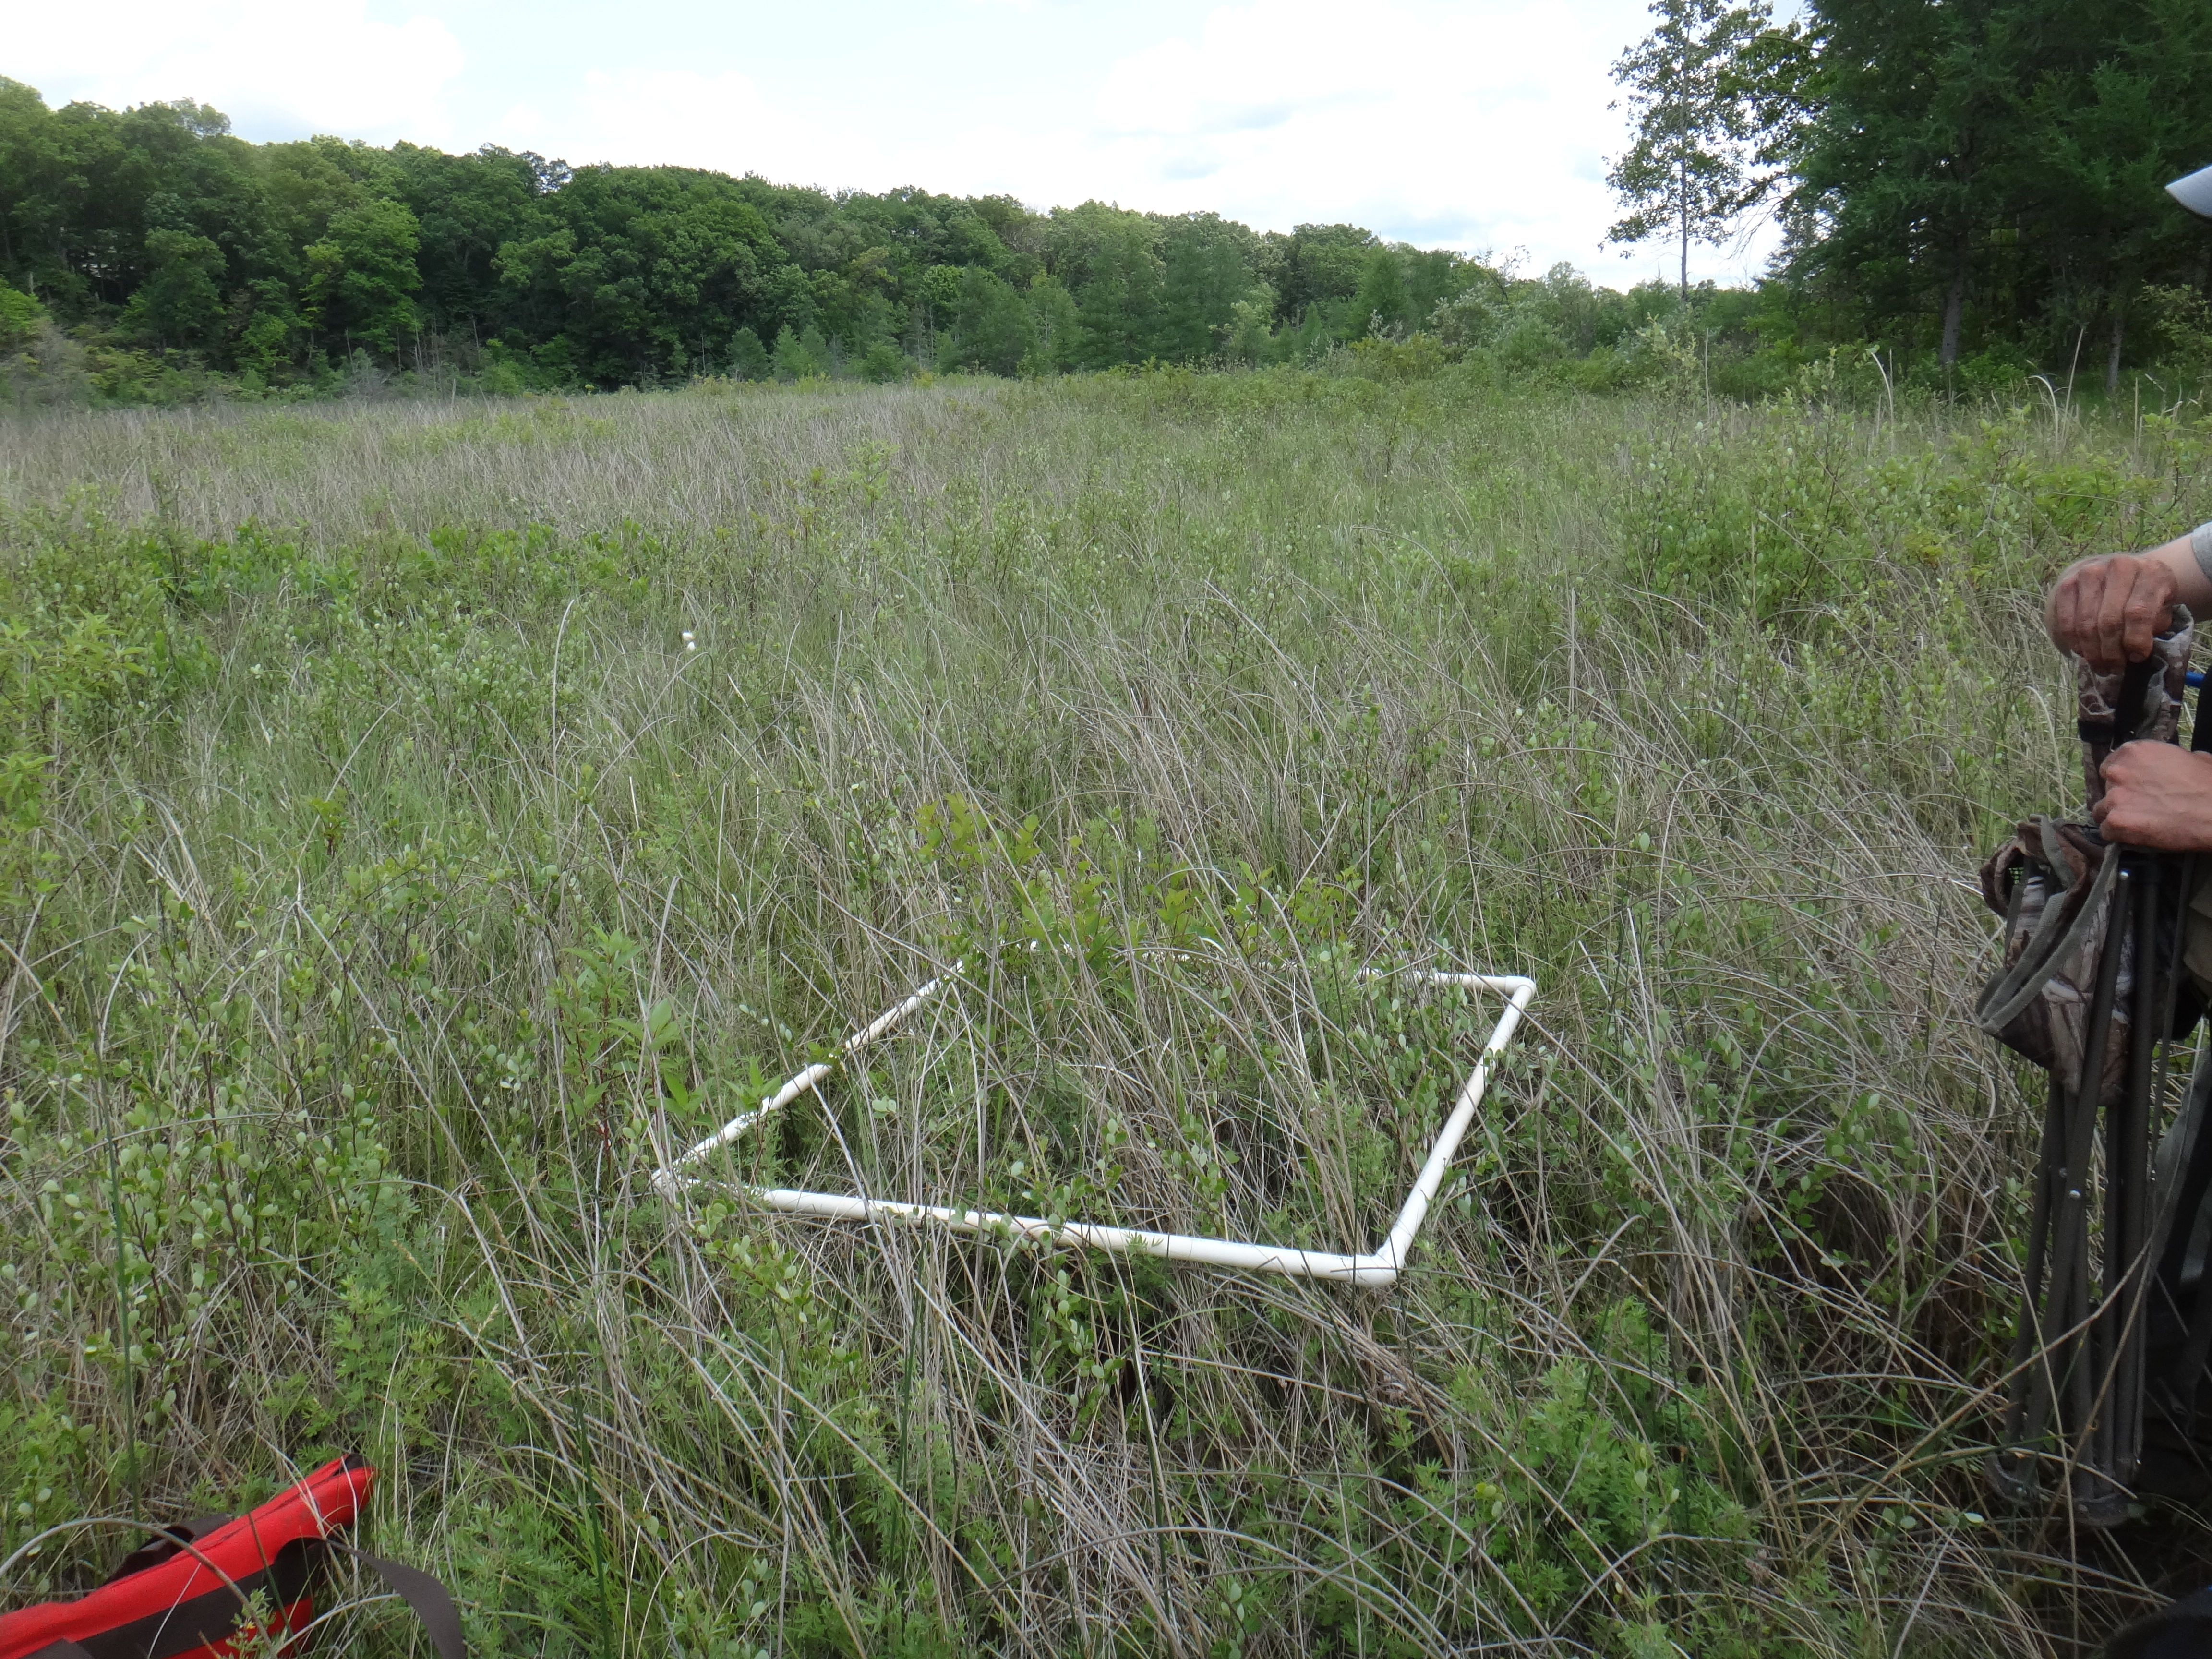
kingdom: Plantae
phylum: Tracheophyta
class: Magnoliopsida
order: Malpighiales
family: Violaceae
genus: Viola
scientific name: Viola nephrophylla
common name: Blue meadow violet
